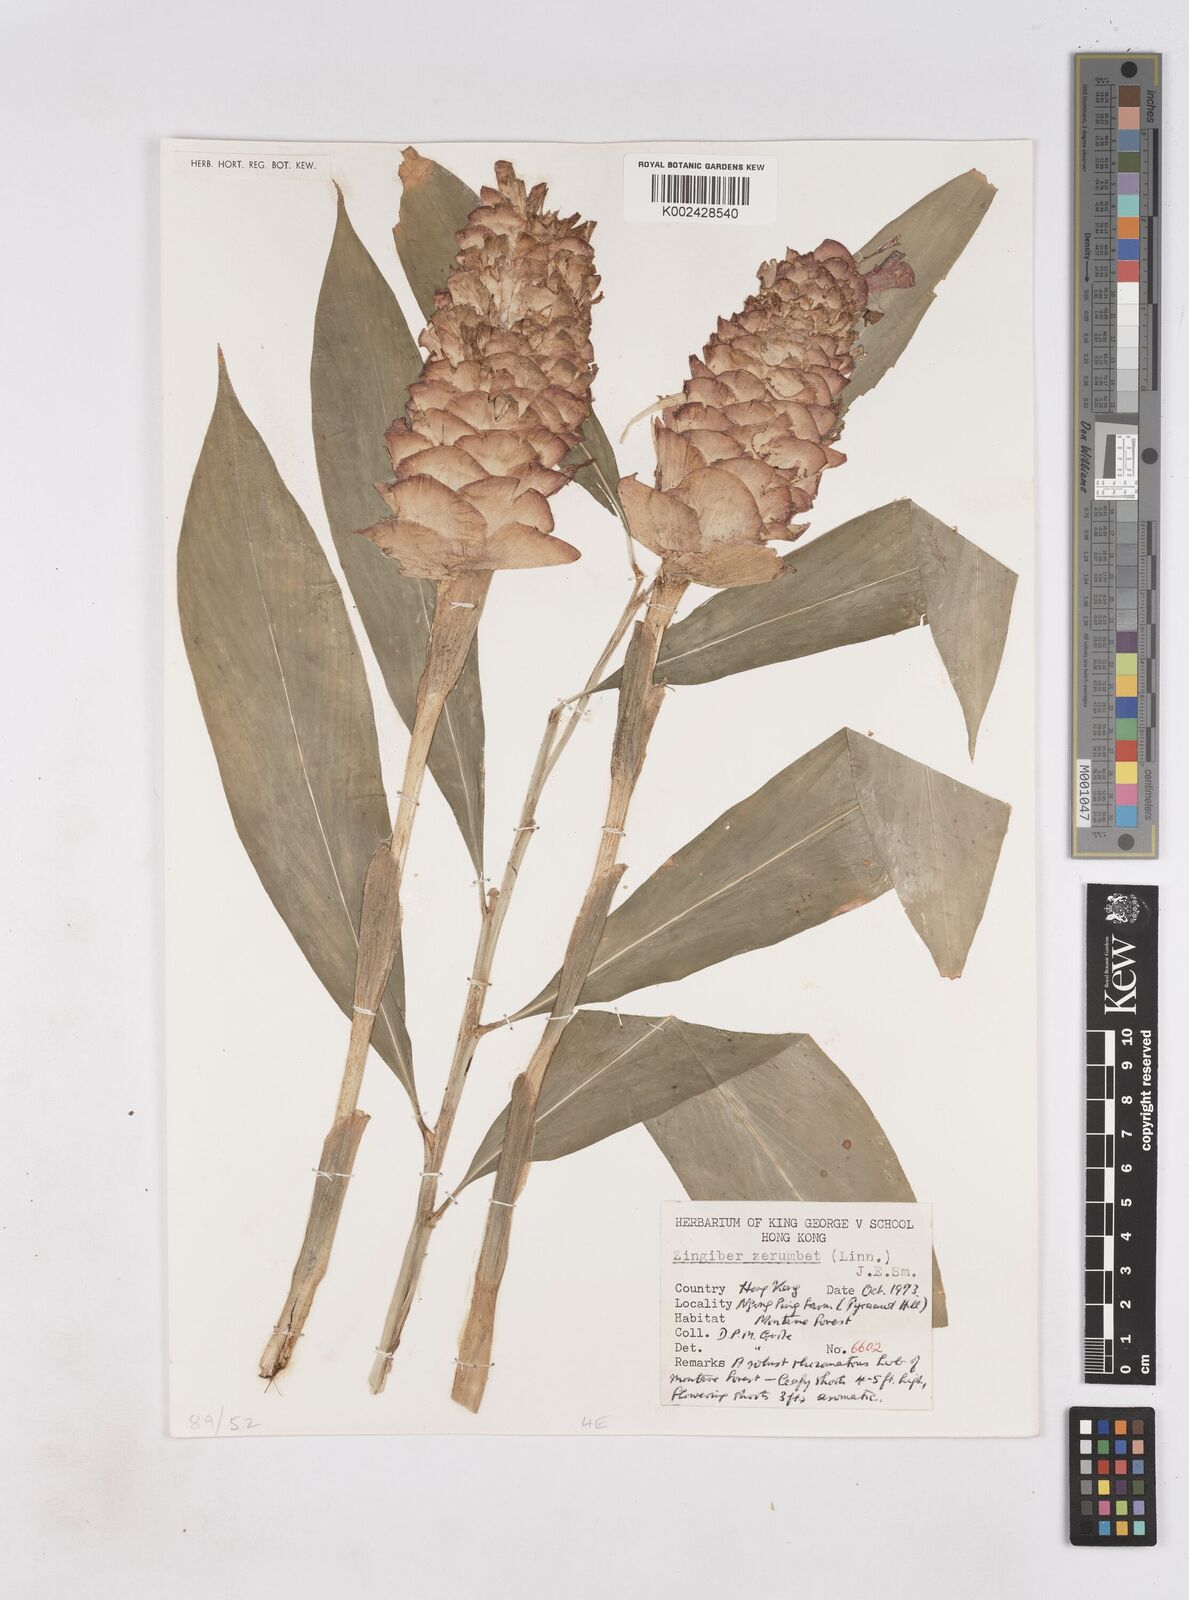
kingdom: Plantae
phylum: Tracheophyta
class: Liliopsida
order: Zingiberales
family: Zingiberaceae
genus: Zingiber
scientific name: Zingiber zerumbet
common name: Bitter ginger
